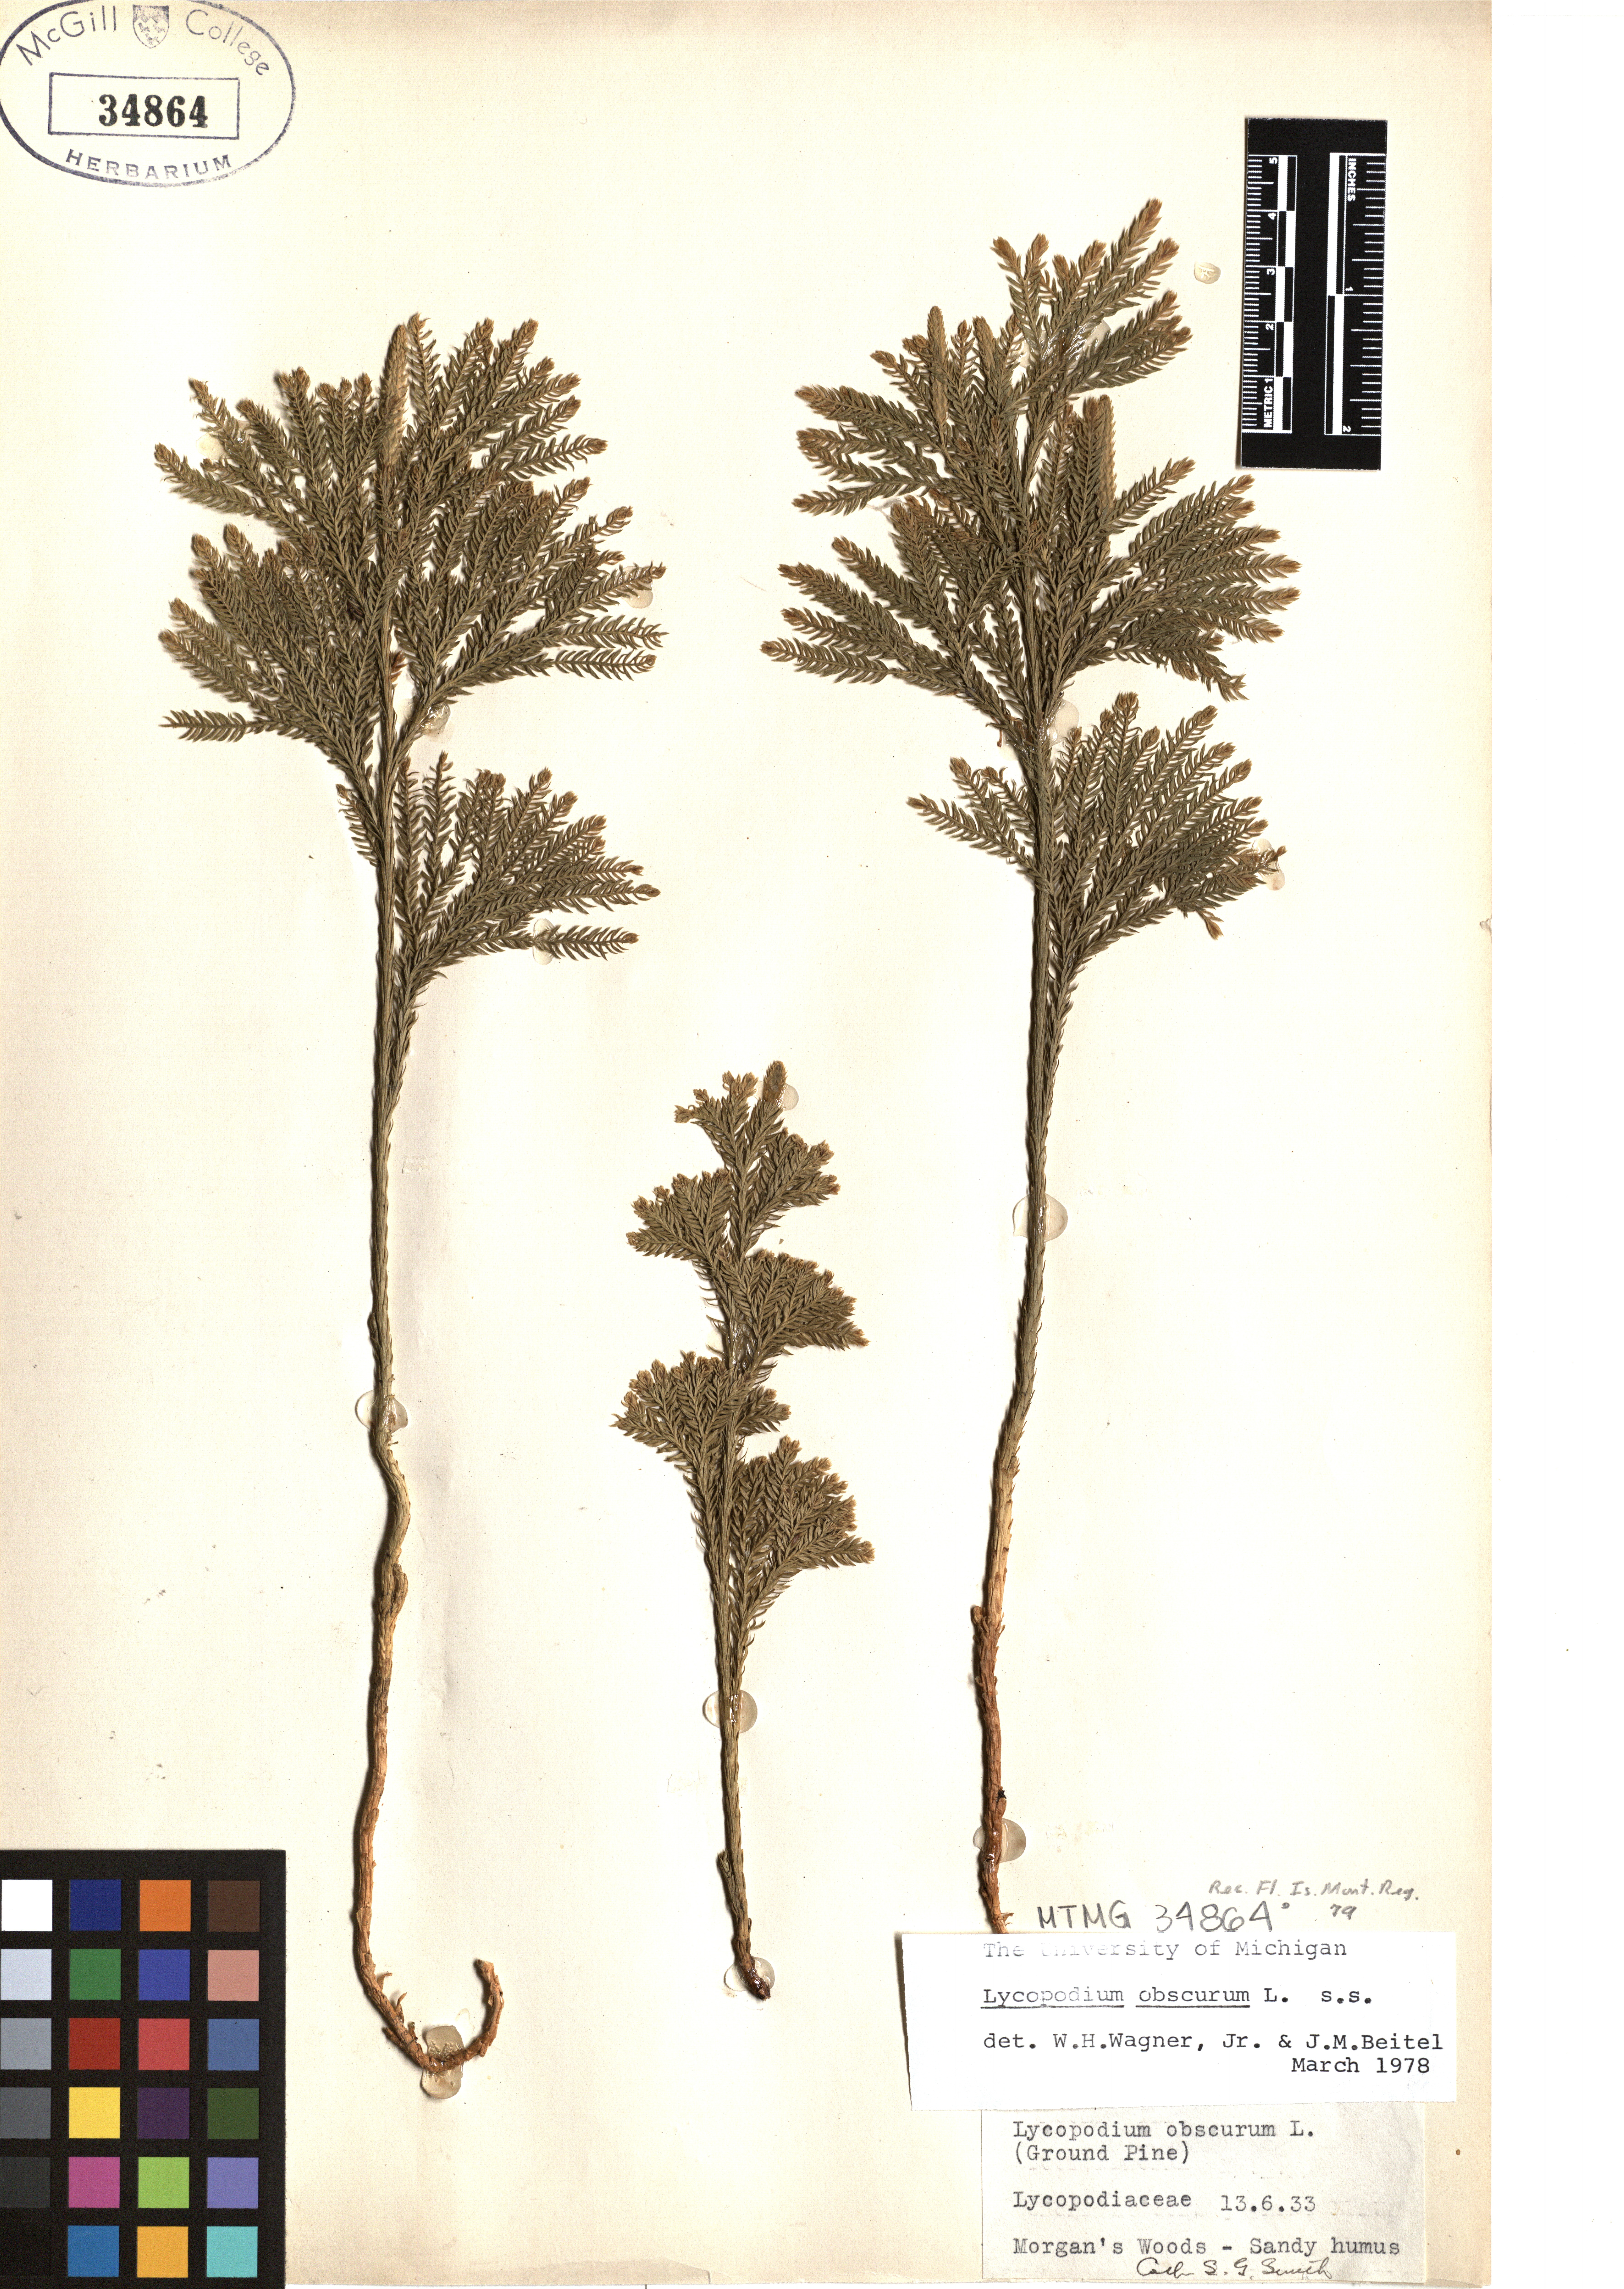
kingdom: Plantae
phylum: Tracheophyta
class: Lycopodiopsida
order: Lycopodiales
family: Lycopodiaceae
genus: Dendrolycopodium
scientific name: Dendrolycopodium obscurum
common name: Common ground-pine
